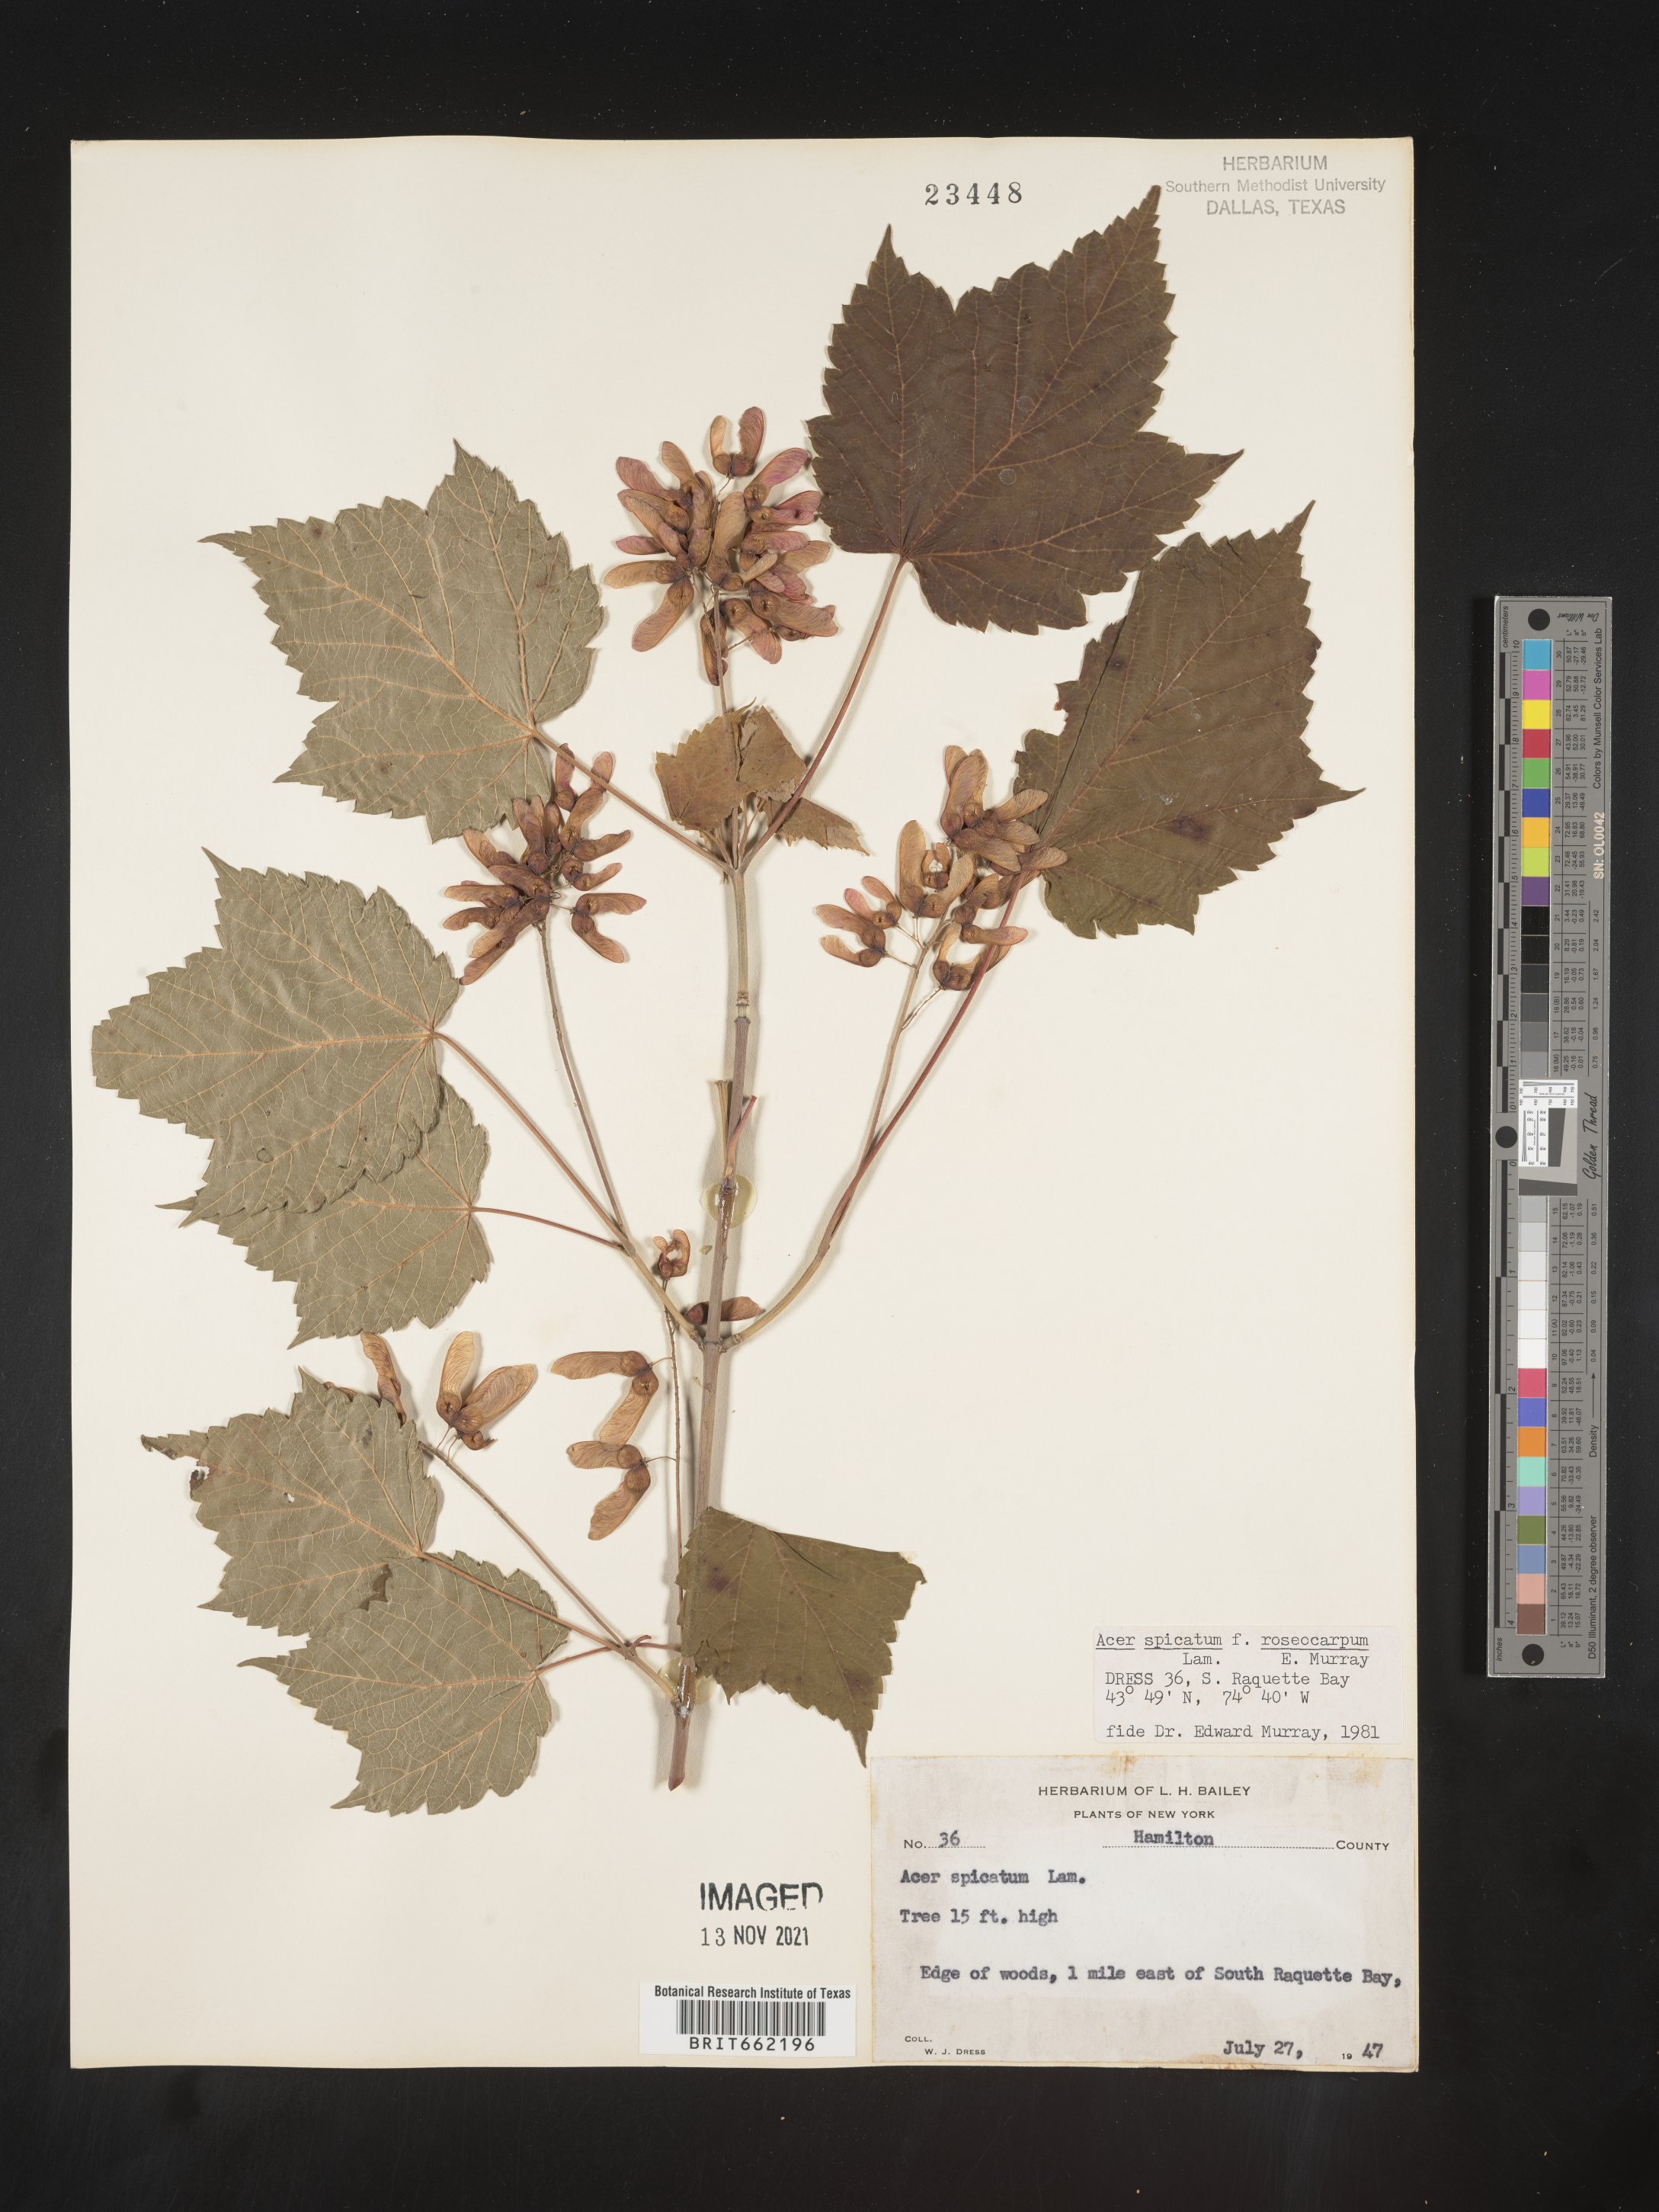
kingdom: Plantae
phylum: Tracheophyta
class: Magnoliopsida
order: Sapindales
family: Sapindaceae
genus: Acer
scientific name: Acer spicatum
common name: Mountain maple
